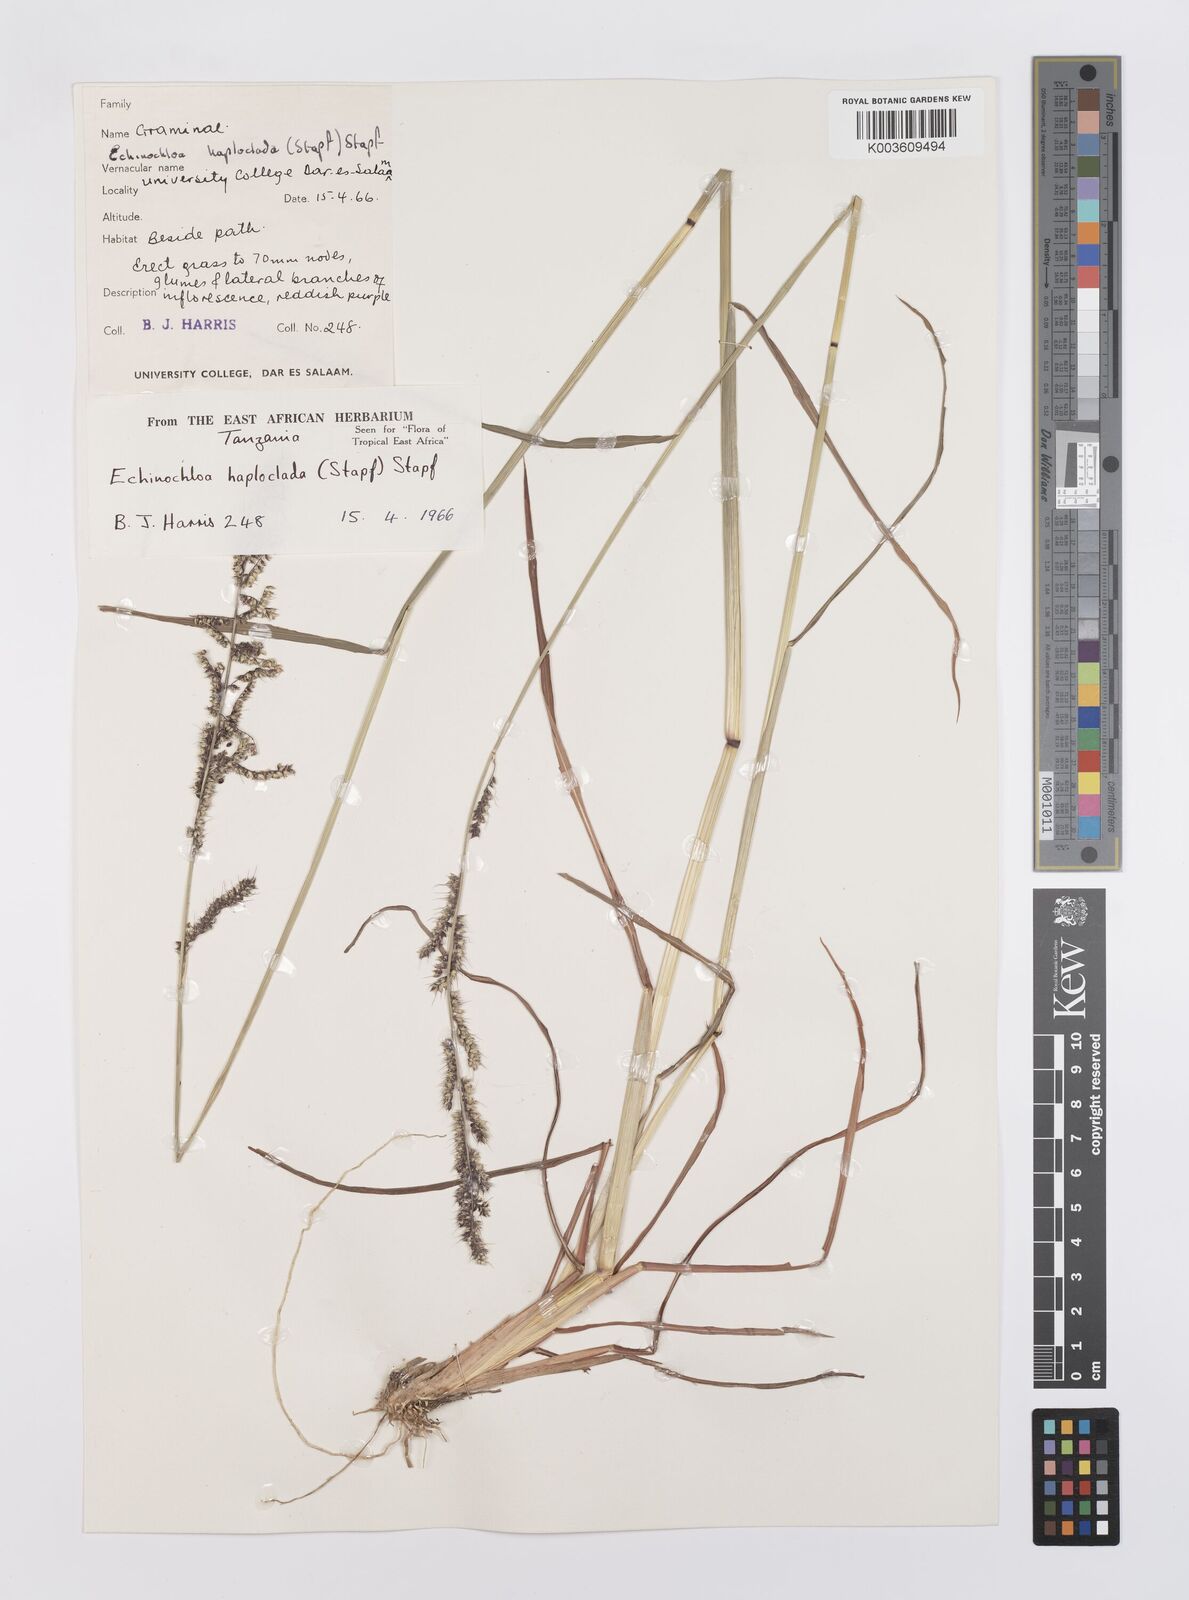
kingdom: Plantae
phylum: Tracheophyta
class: Liliopsida
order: Poales
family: Poaceae
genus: Echinochloa
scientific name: Echinochloa haploclada
